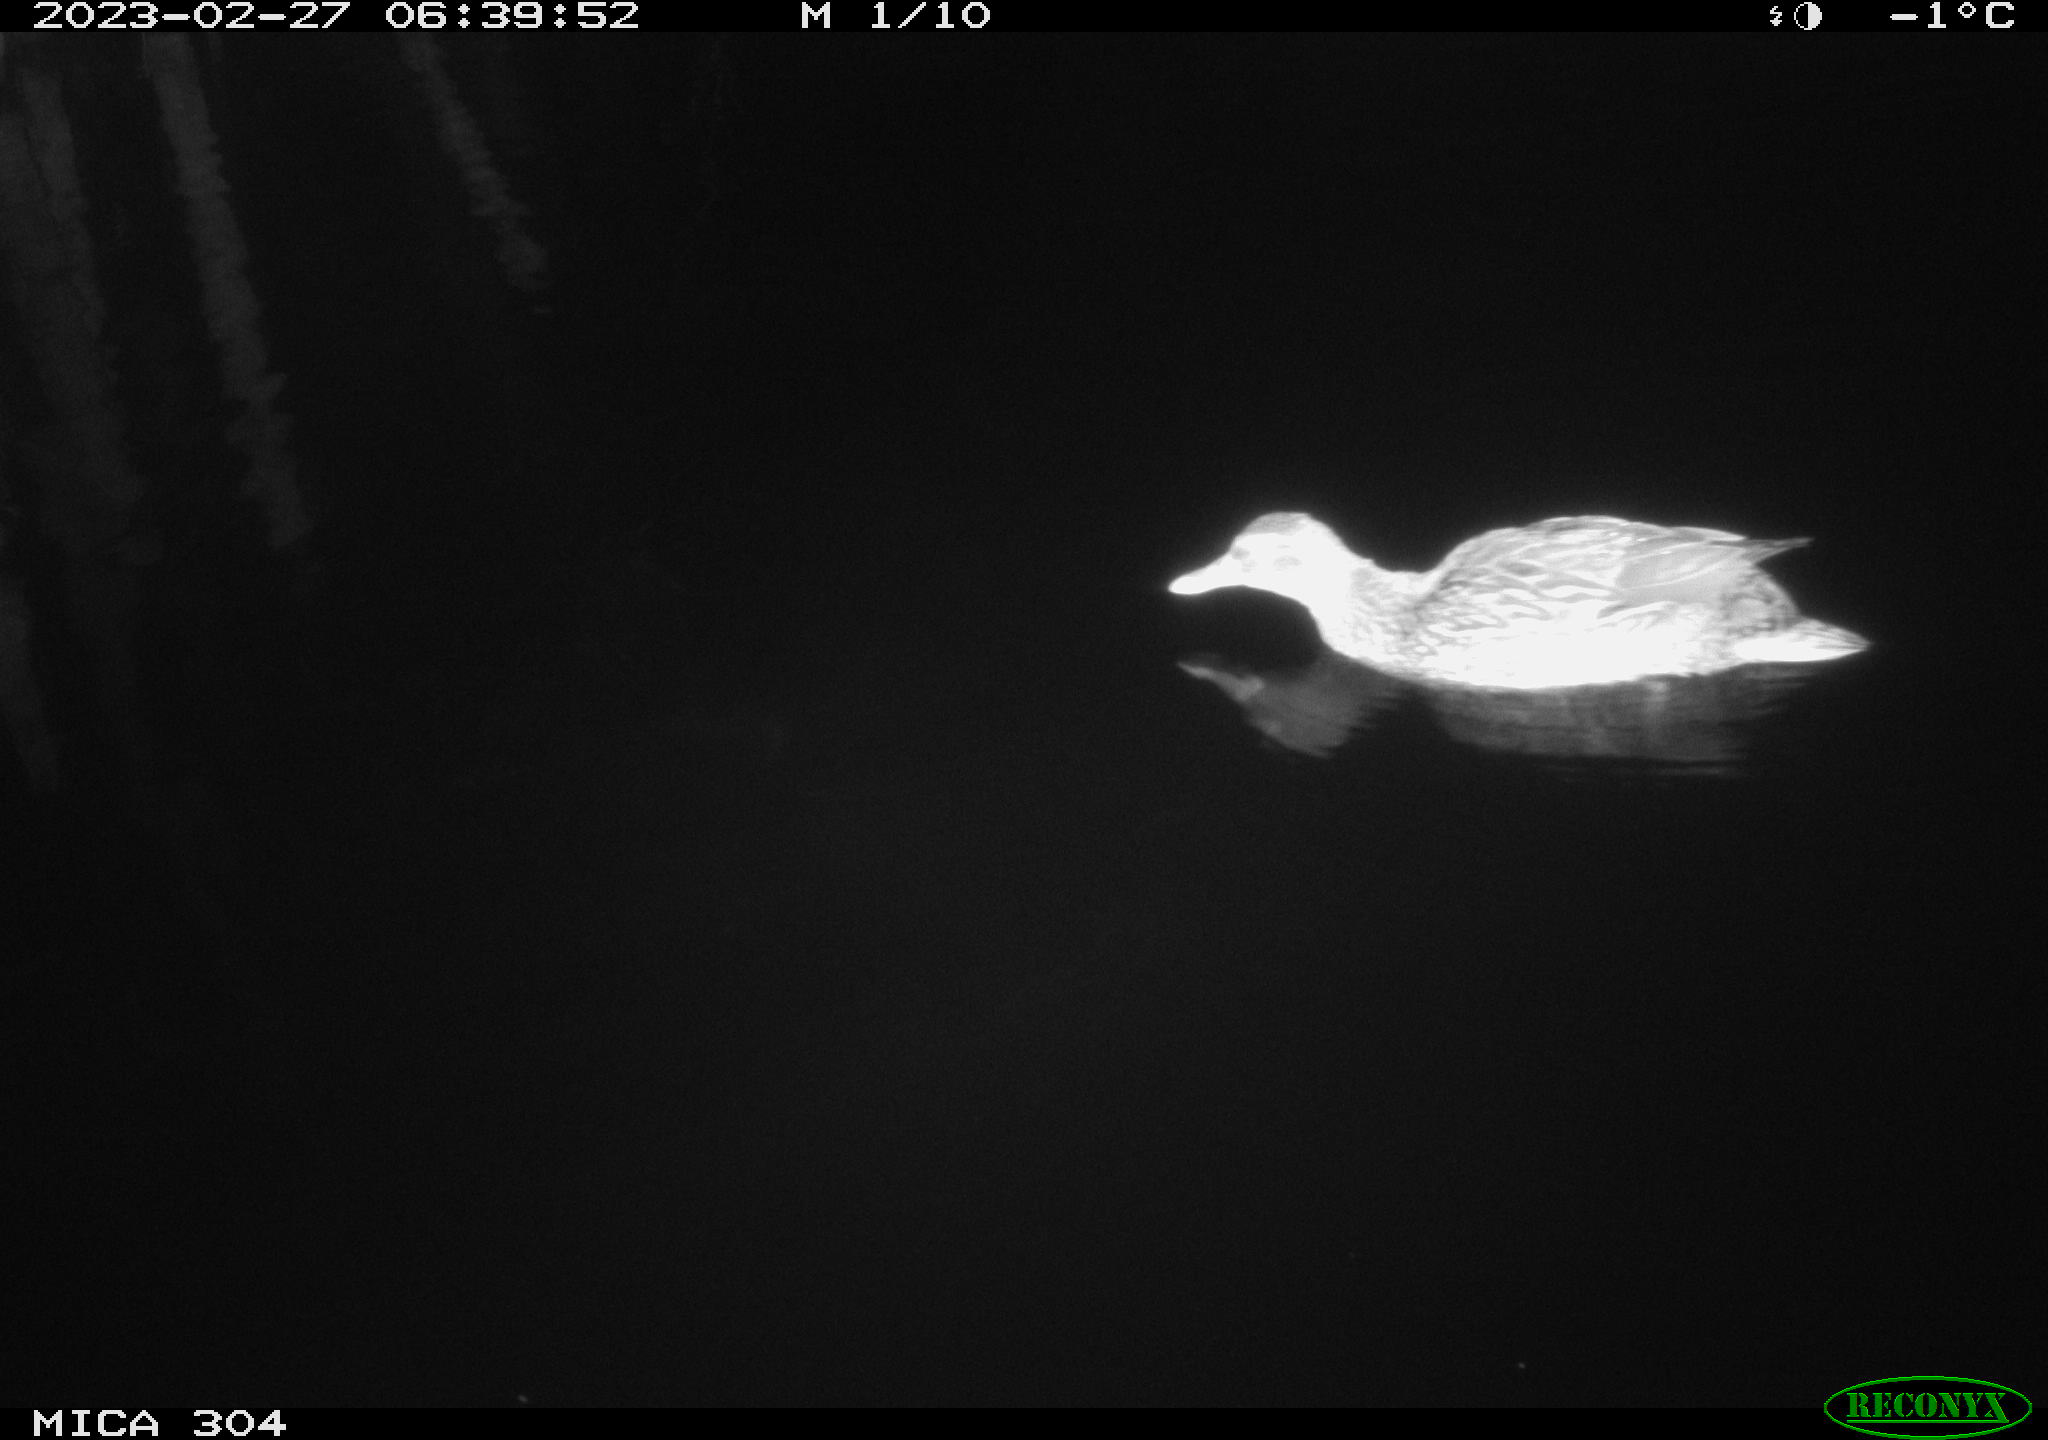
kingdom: Animalia
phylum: Chordata
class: Aves
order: Anseriformes
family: Anatidae
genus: Anas
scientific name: Anas
